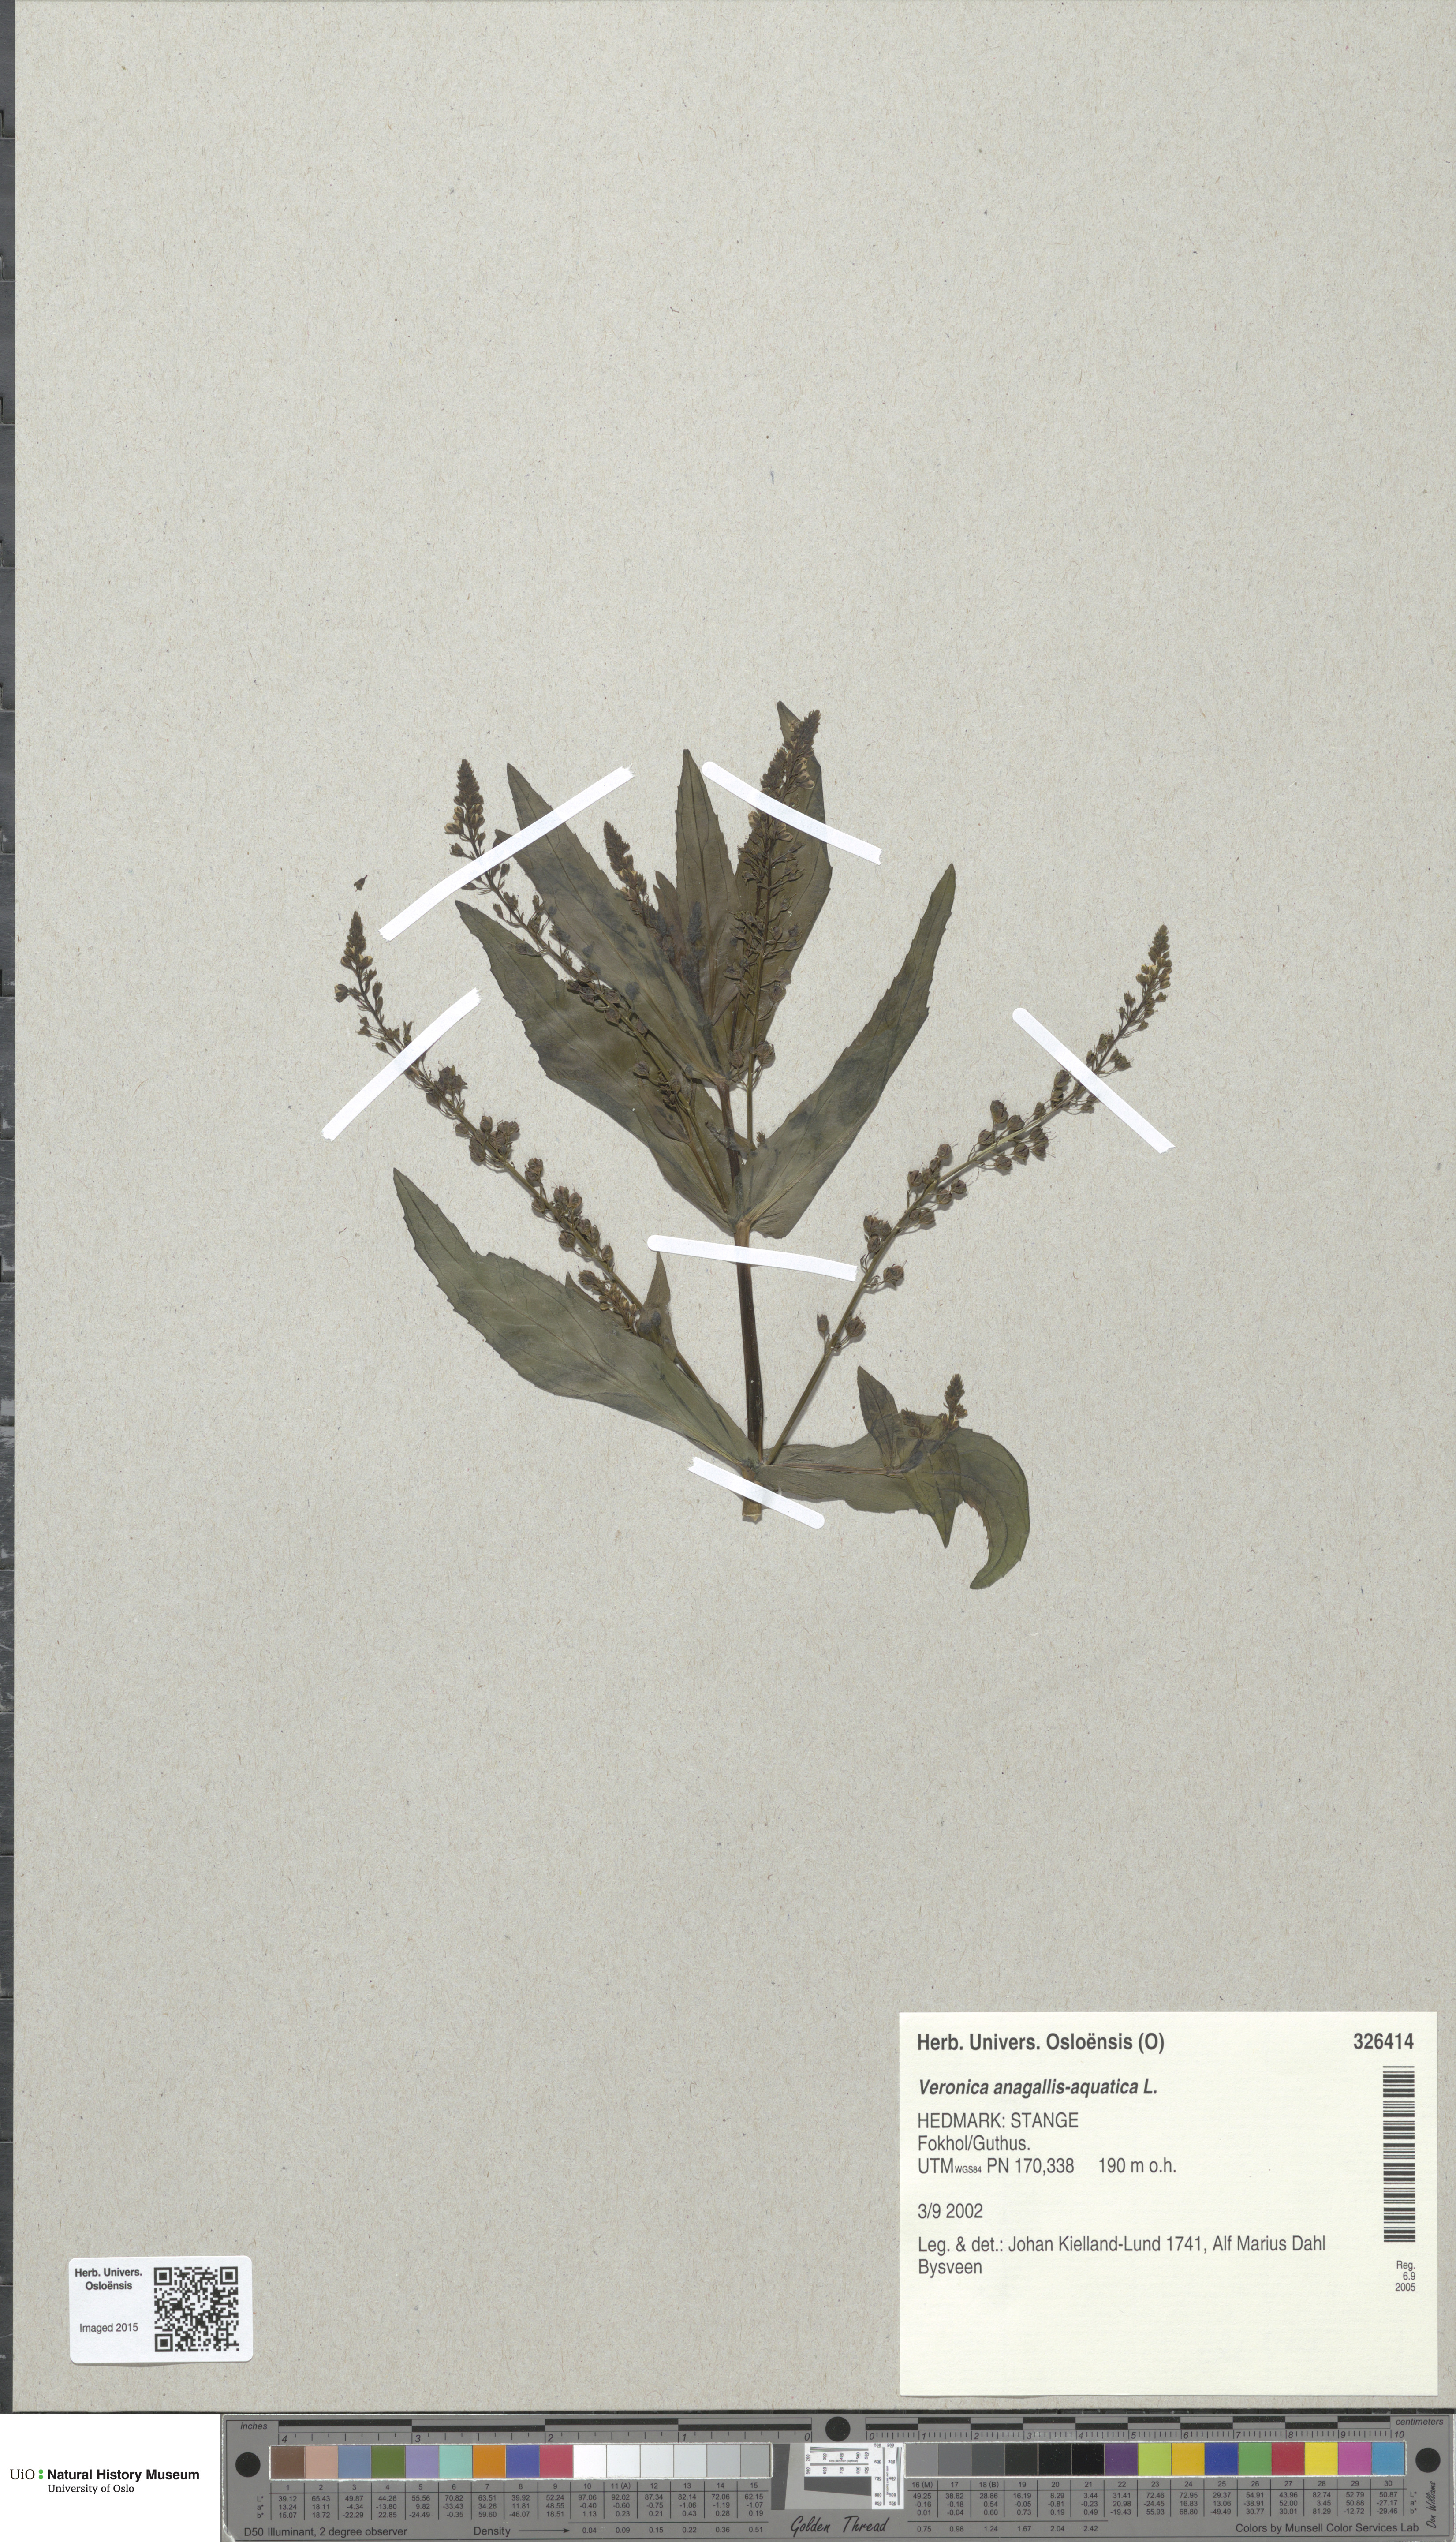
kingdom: Plantae
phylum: Tracheophyta
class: Magnoliopsida
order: Lamiales
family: Plantaginaceae
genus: Veronica
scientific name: Veronica anagallis-aquatica
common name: Water speedwell
